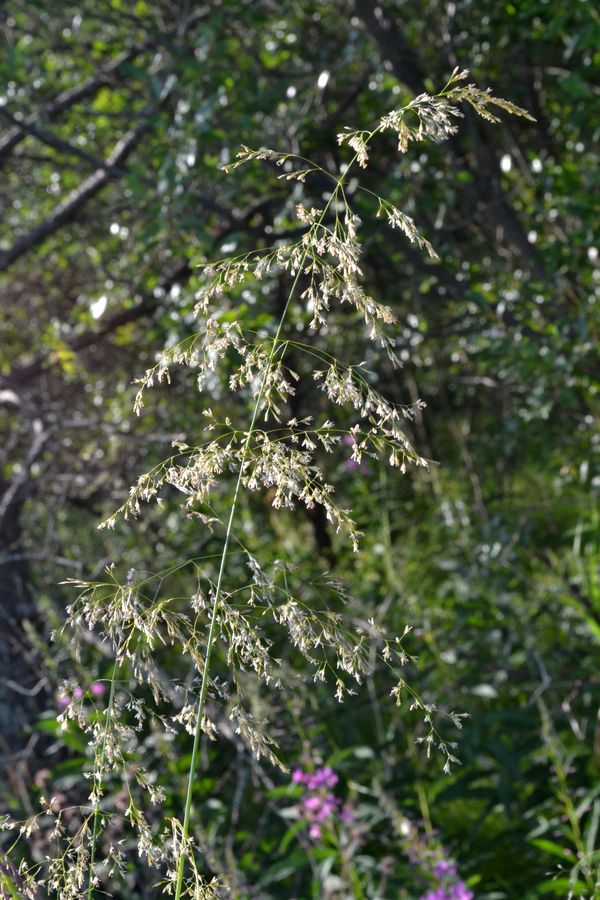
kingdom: Plantae
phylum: Tracheophyta
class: Liliopsida
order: Poales
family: Poaceae
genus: Deschampsia
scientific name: Deschampsia cespitosa
